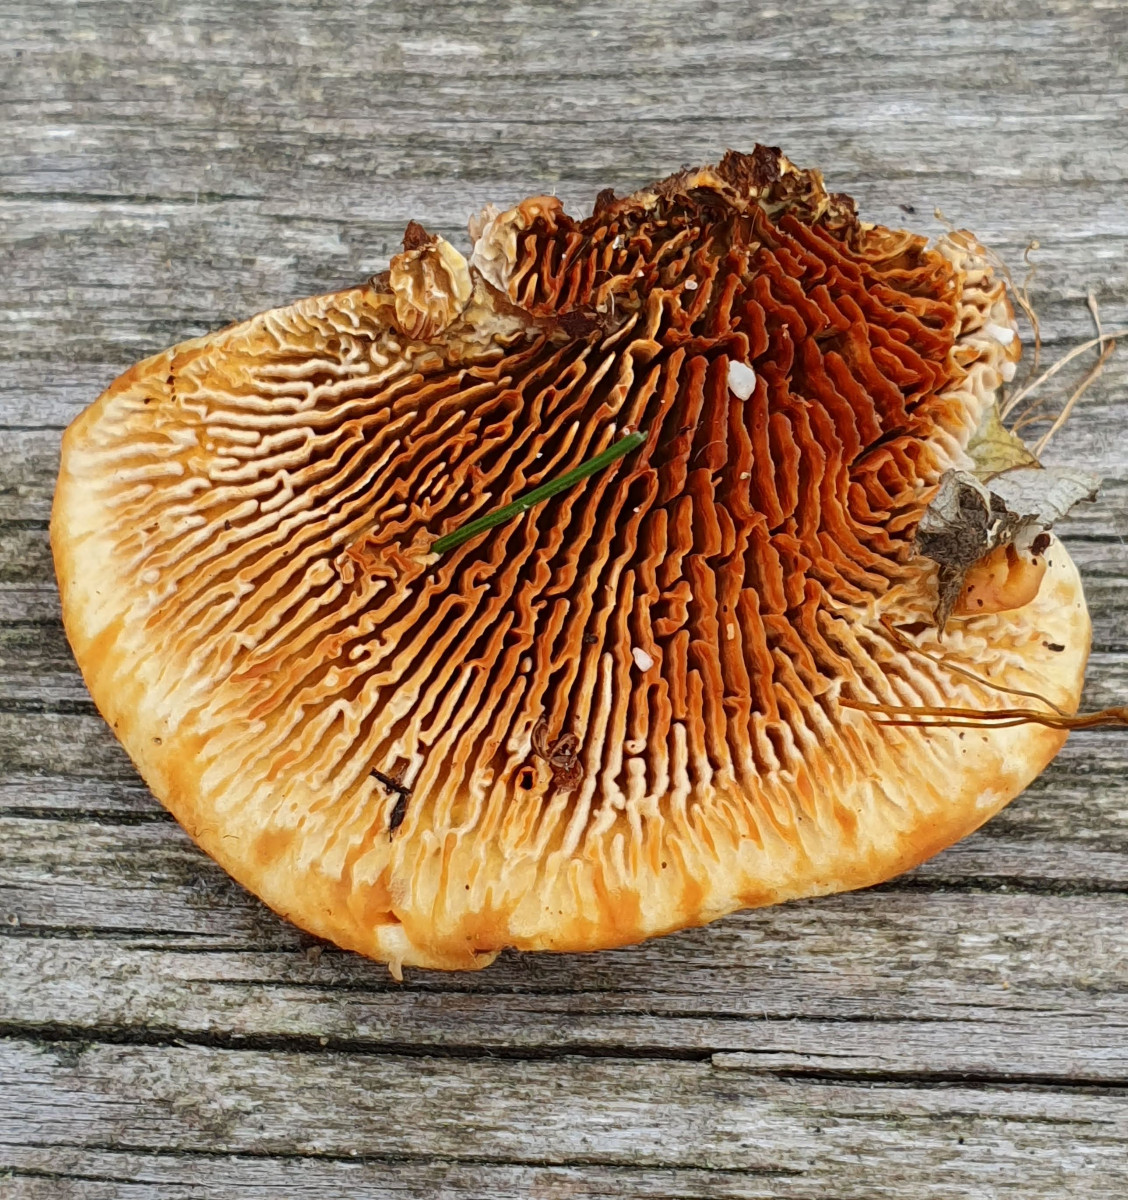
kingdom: Fungi
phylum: Basidiomycota
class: Agaricomycetes
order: Gloeophyllales
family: Gloeophyllaceae
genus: Gloeophyllum
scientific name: Gloeophyllum sepiarium
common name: fyrre-korkhat
